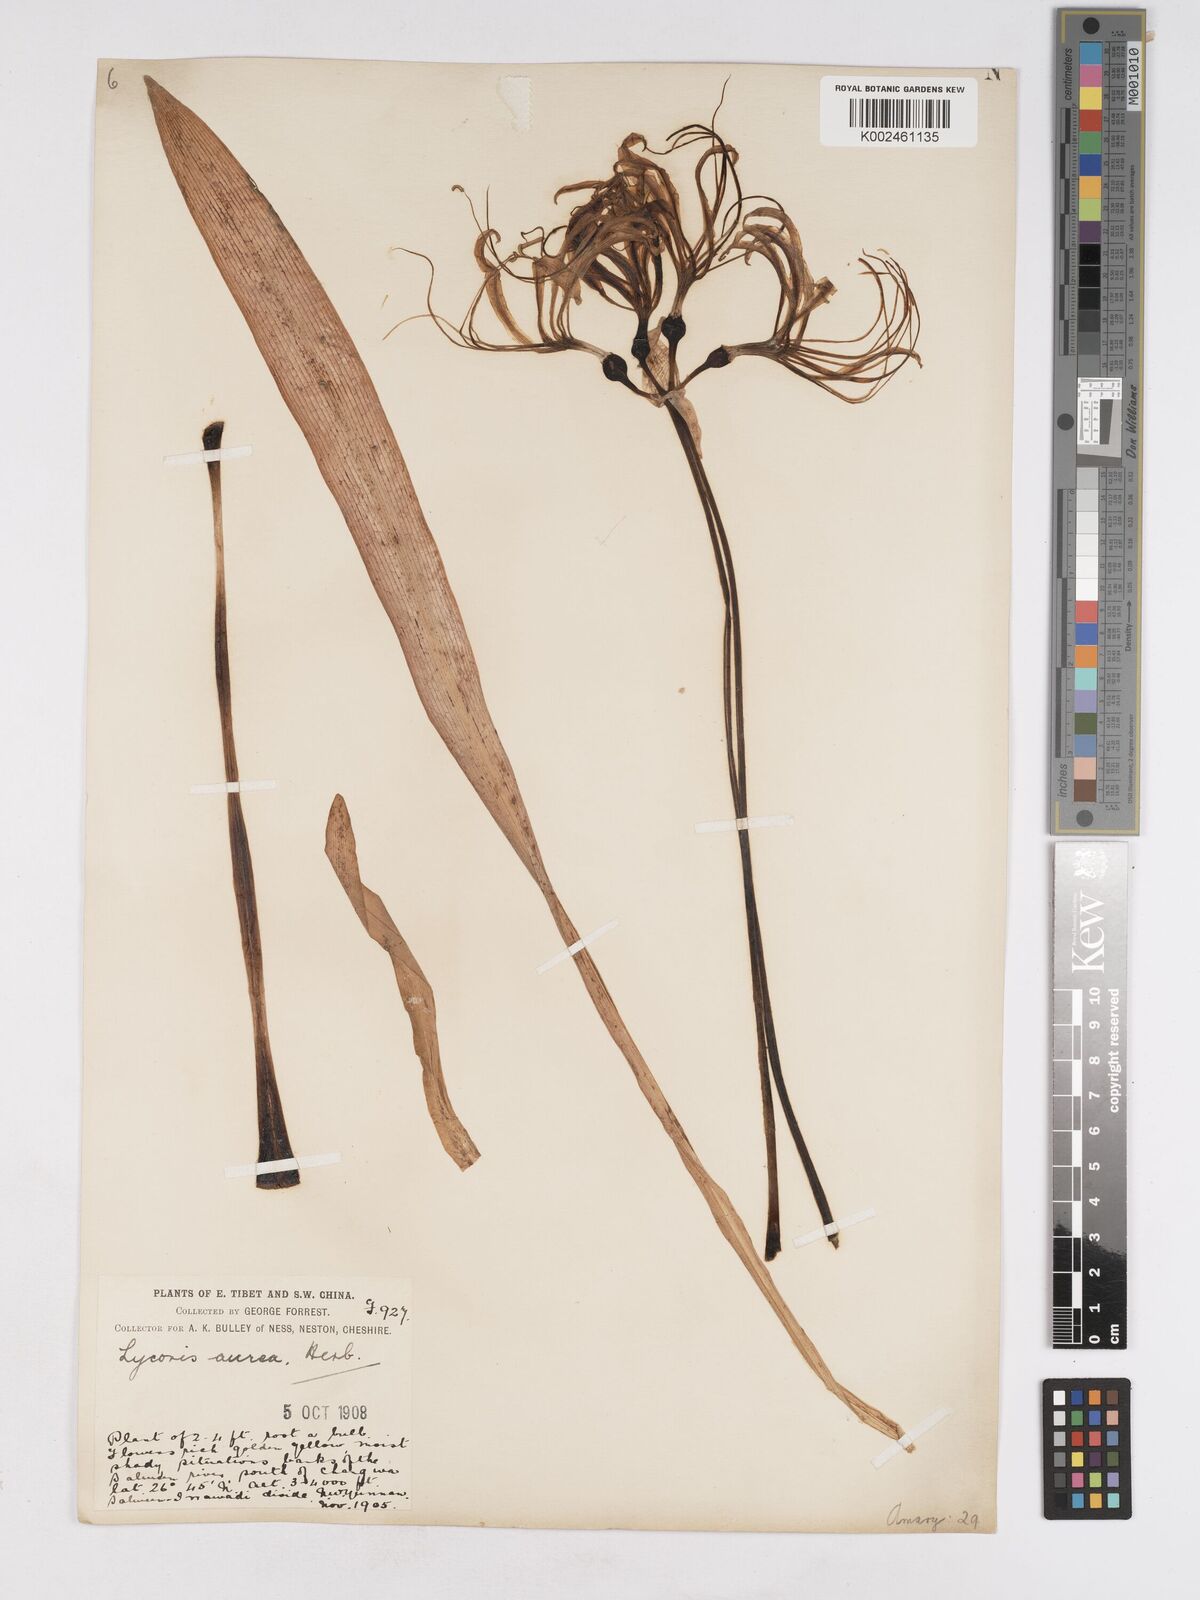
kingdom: Plantae
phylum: Tracheophyta
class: Liliopsida
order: Asparagales
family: Amaryllidaceae
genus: Lycoris
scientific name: Lycoris aurea
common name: Golden hurricane-lily
